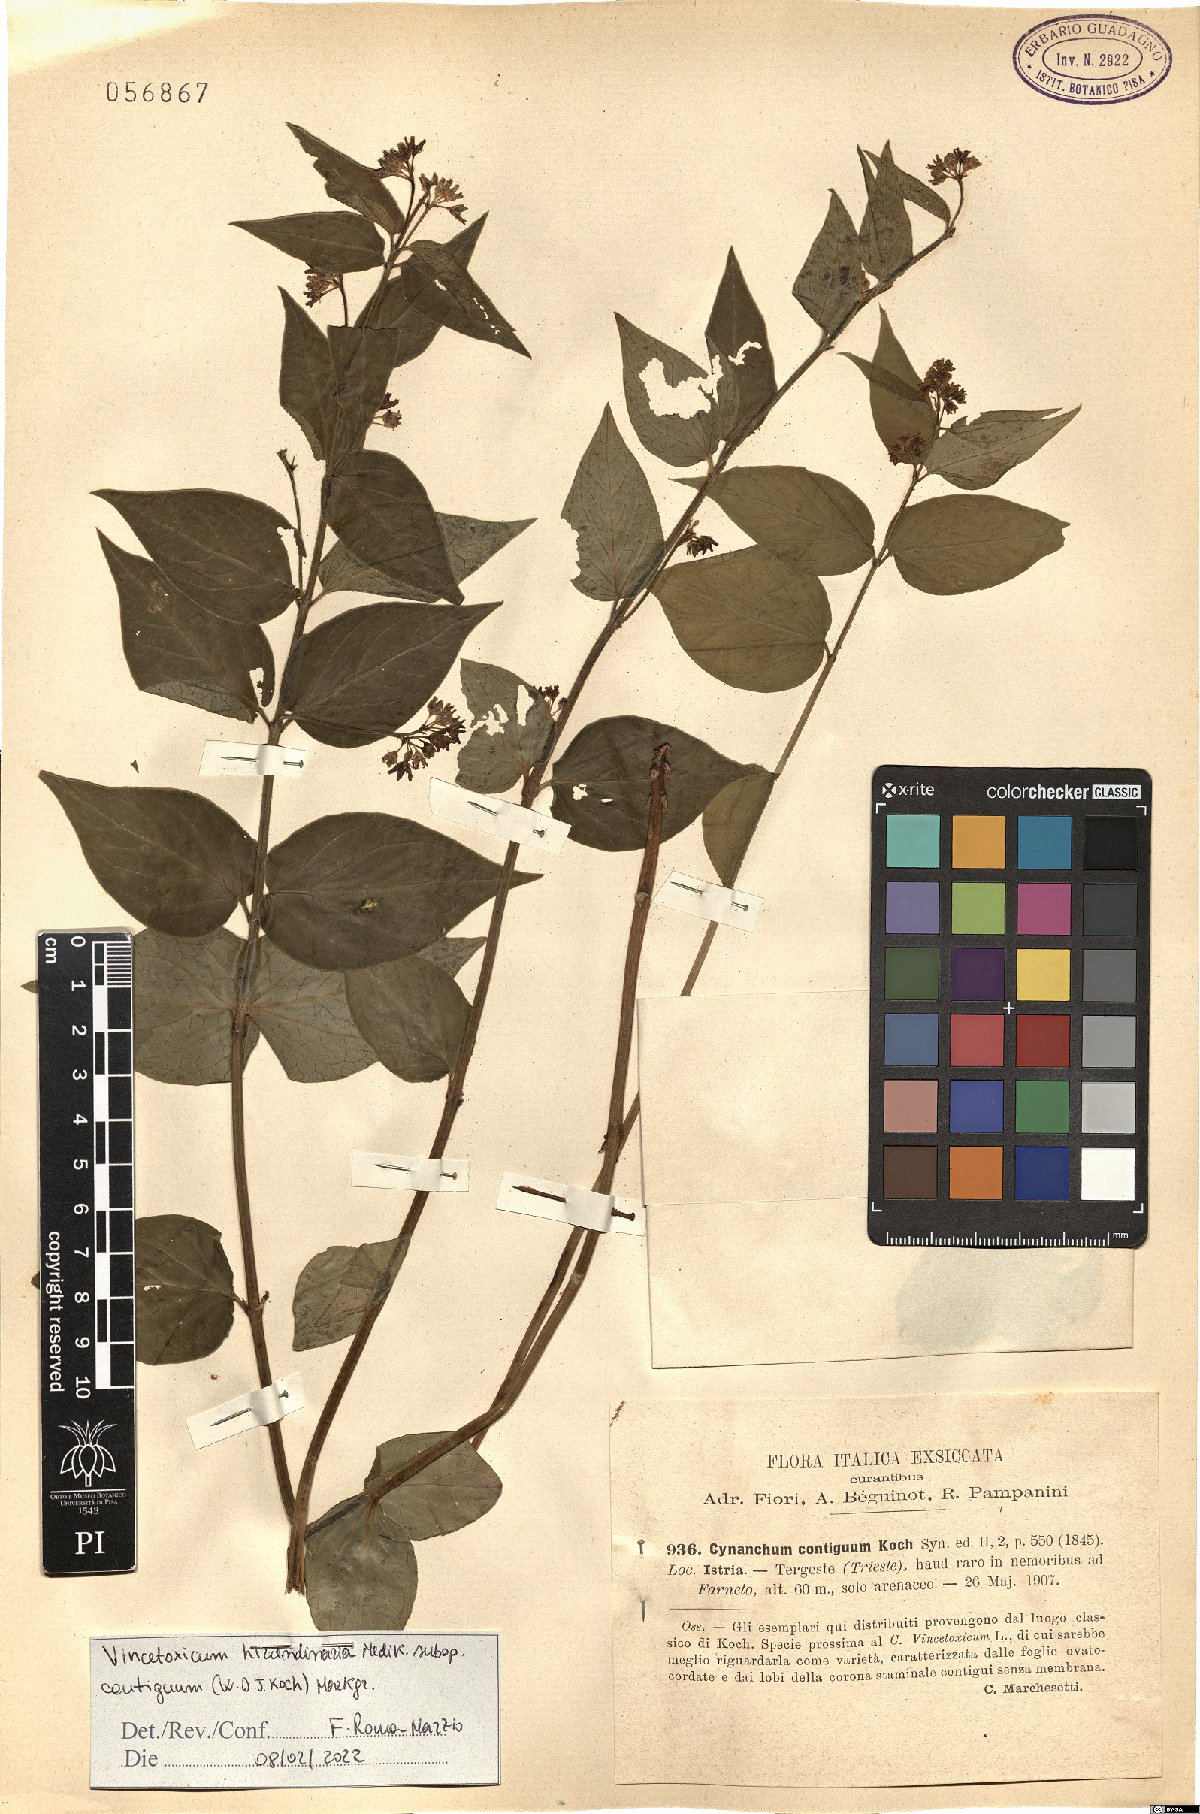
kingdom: Plantae
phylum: Tracheophyta
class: Magnoliopsida
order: Gentianales
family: Apocynaceae
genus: Vincetoxicum
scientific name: Vincetoxicum hirundinaria
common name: White swallowwort
